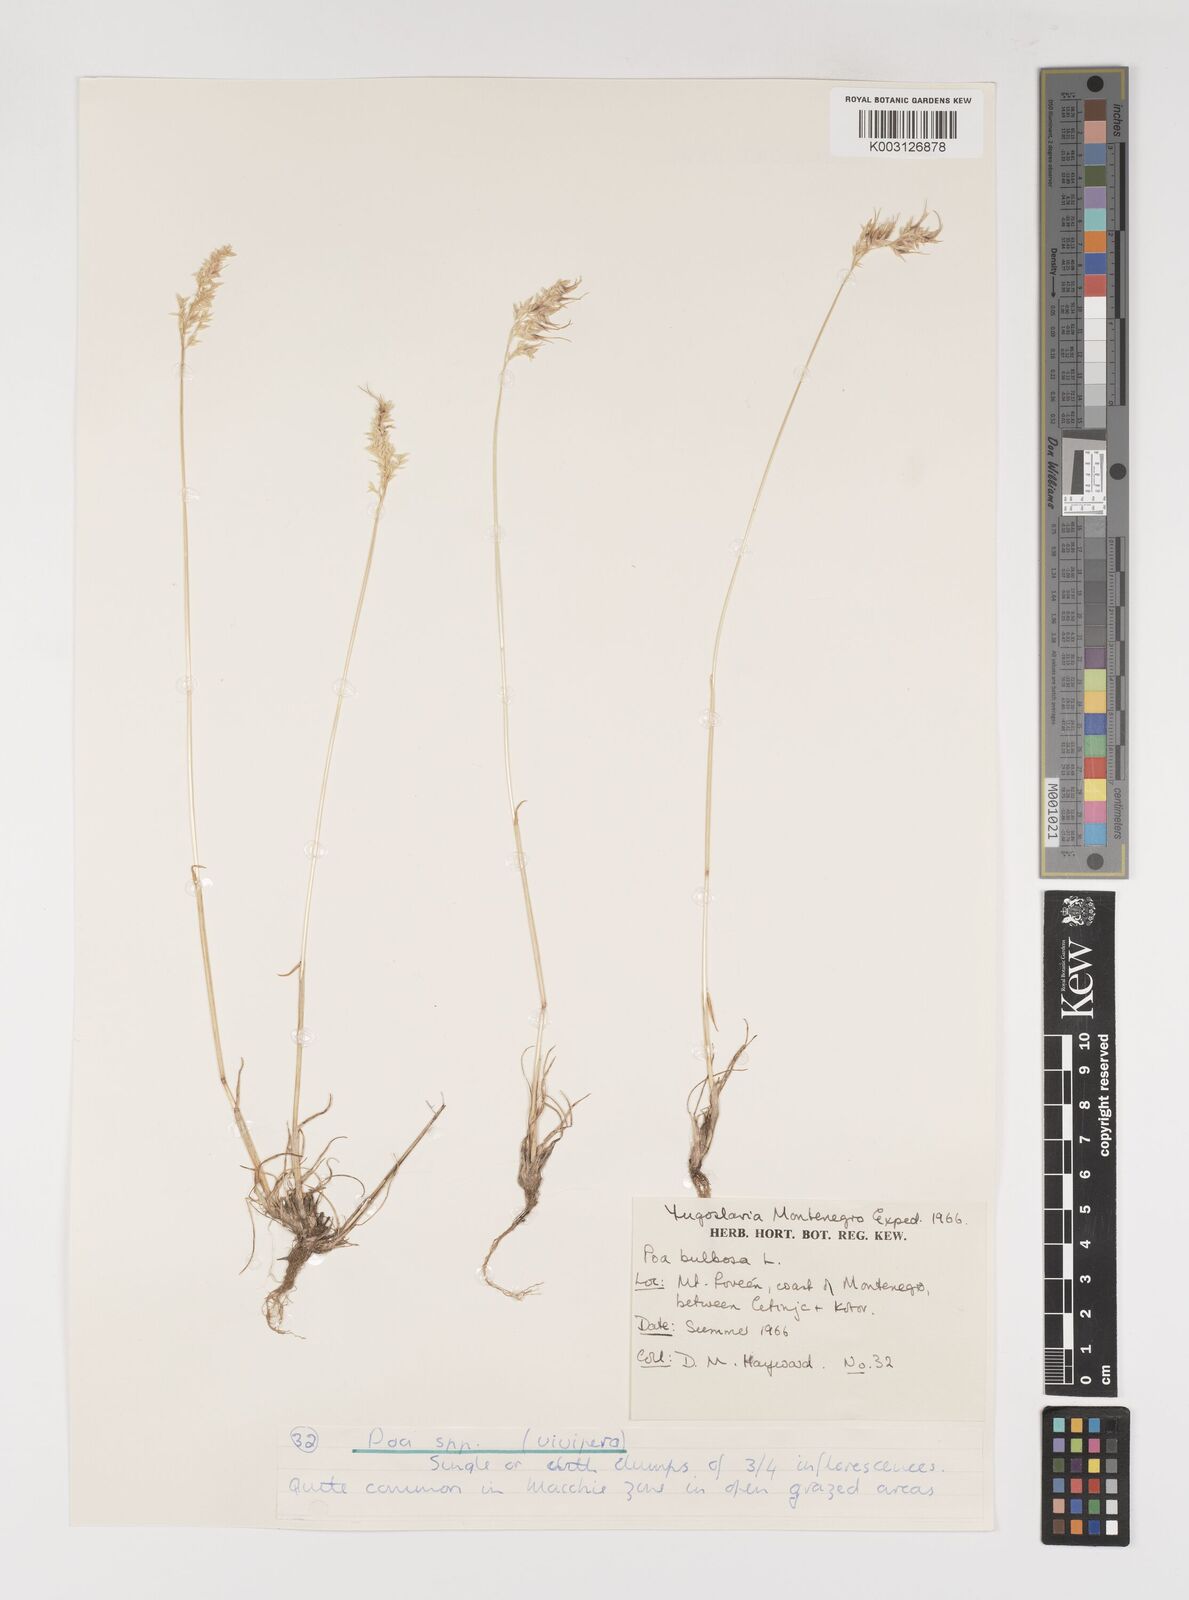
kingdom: Plantae
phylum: Tracheophyta
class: Liliopsida
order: Poales
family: Poaceae
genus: Poa
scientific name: Poa bulbosa
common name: Bulbous bluegrass
